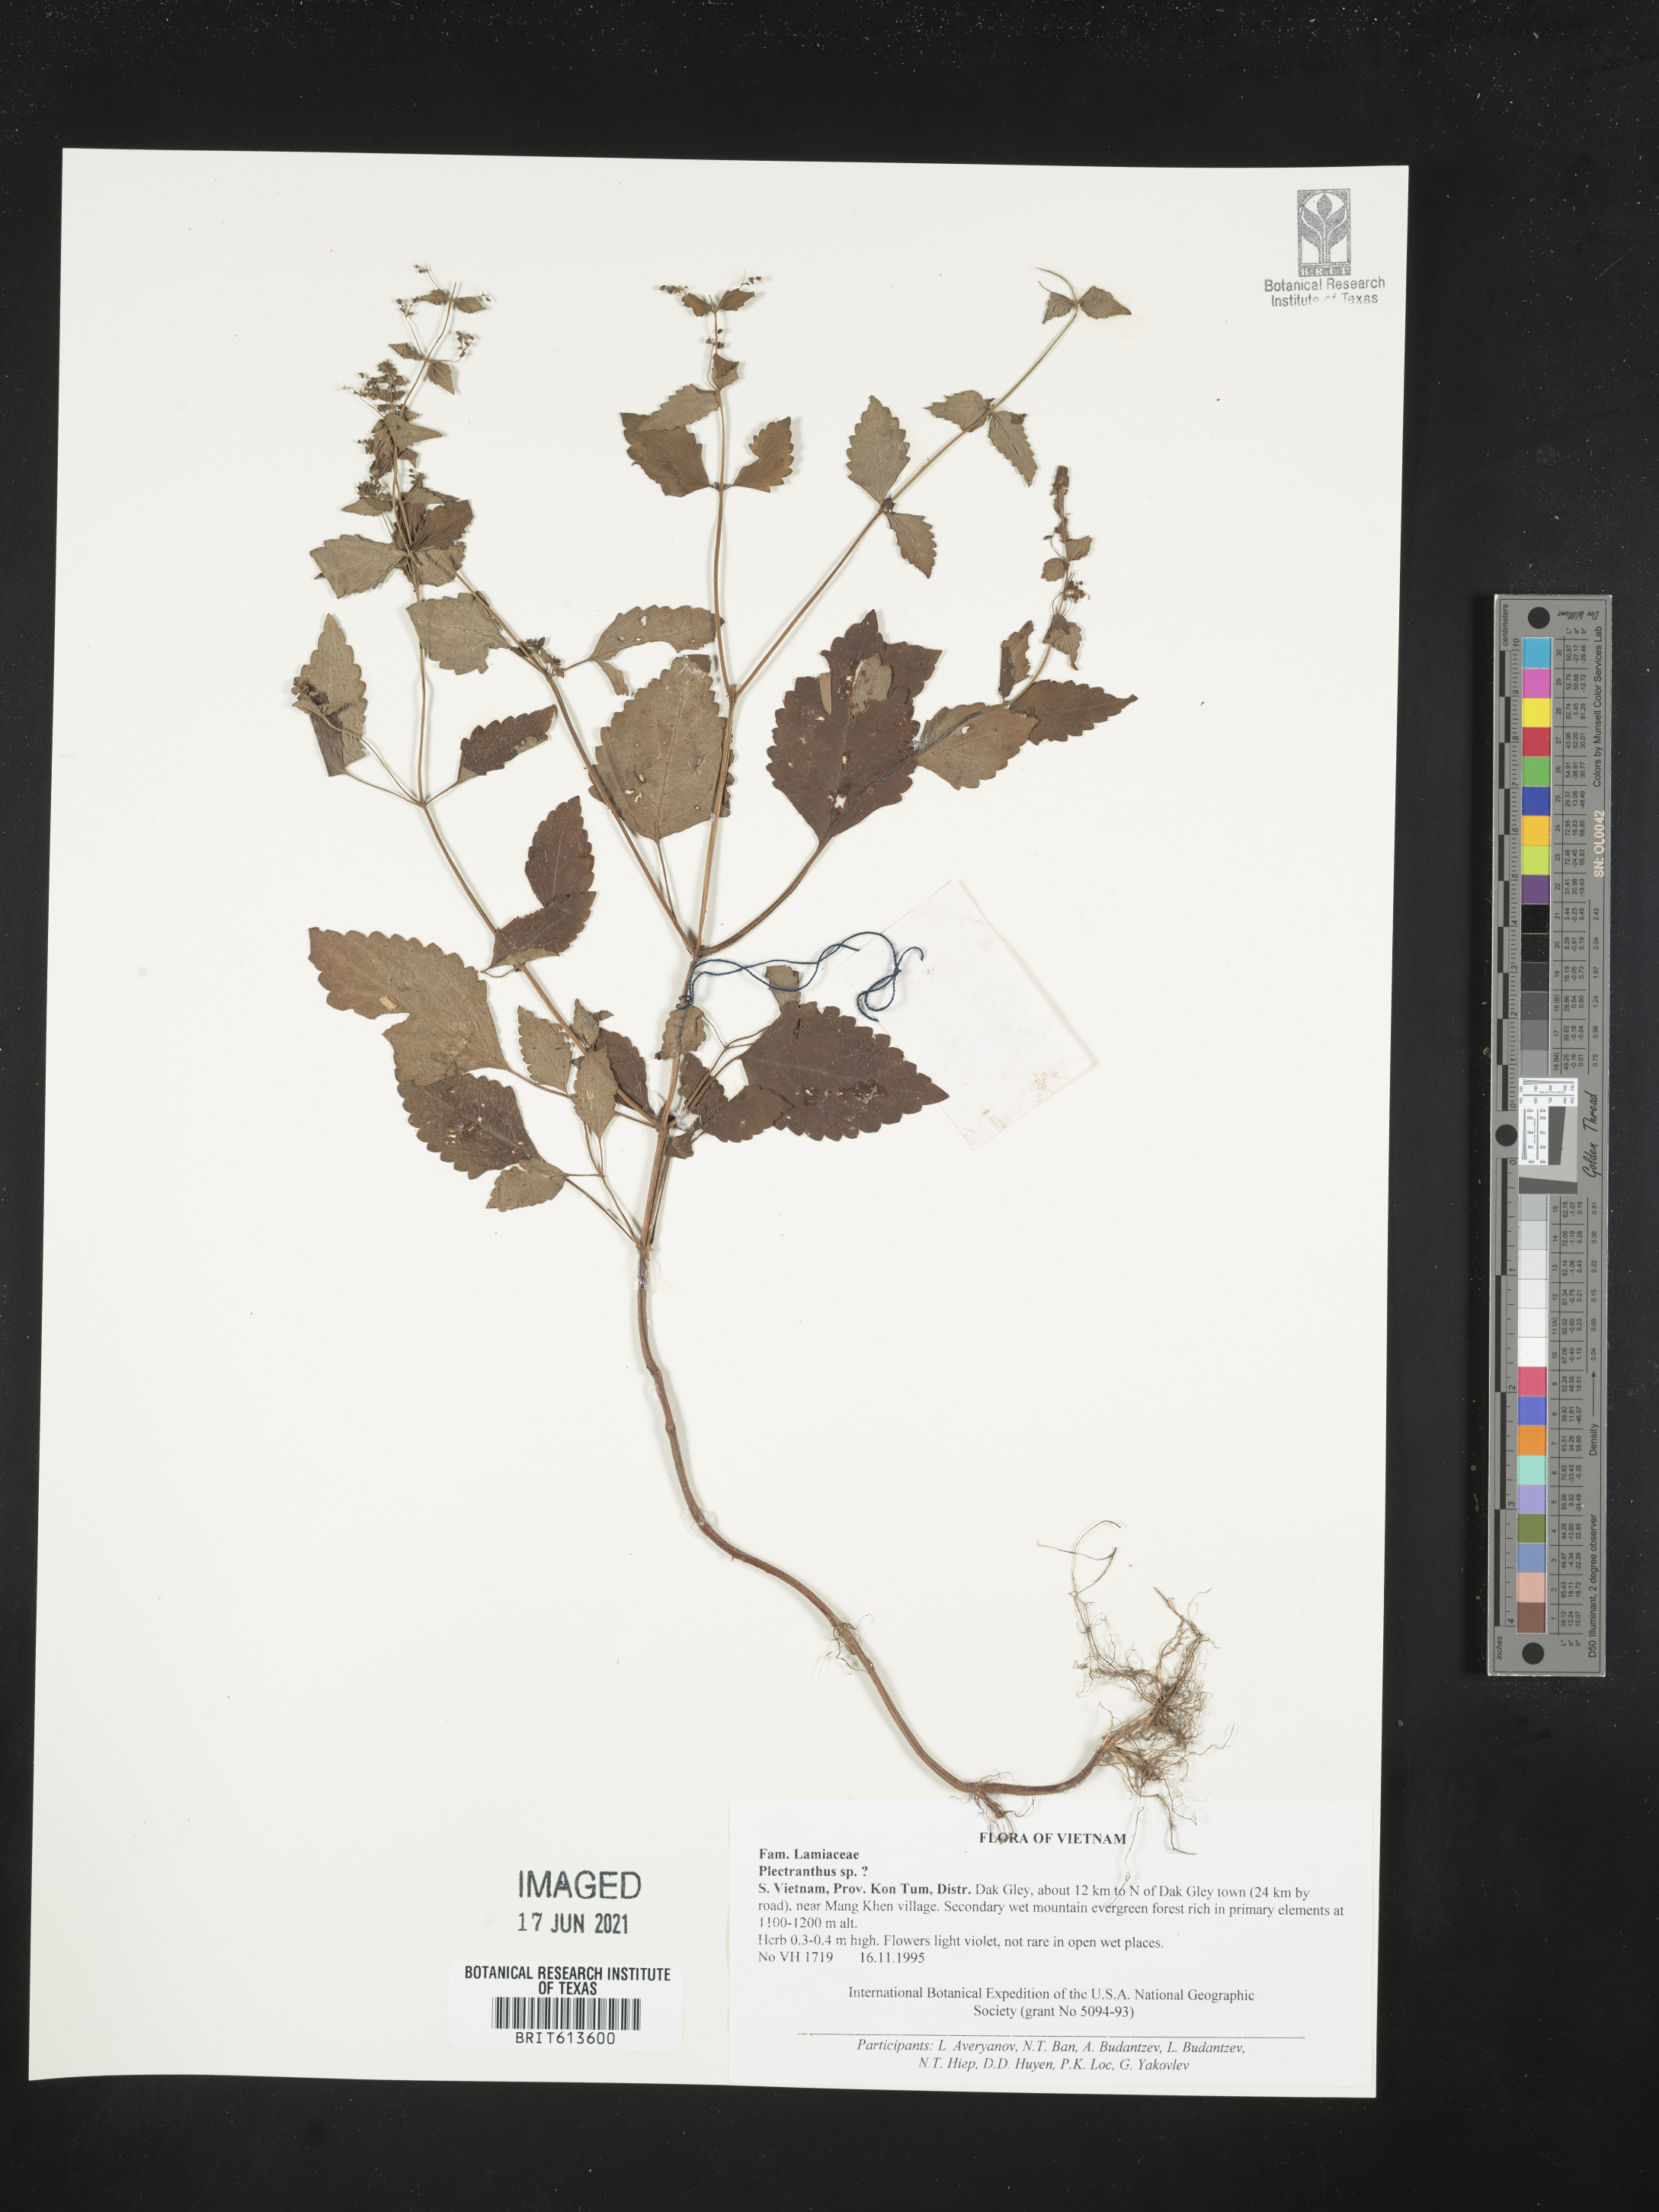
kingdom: Plantae
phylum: Tracheophyta
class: Magnoliopsida
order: Lamiales
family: Lamiaceae
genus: Plectranthus
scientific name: Plectranthus
